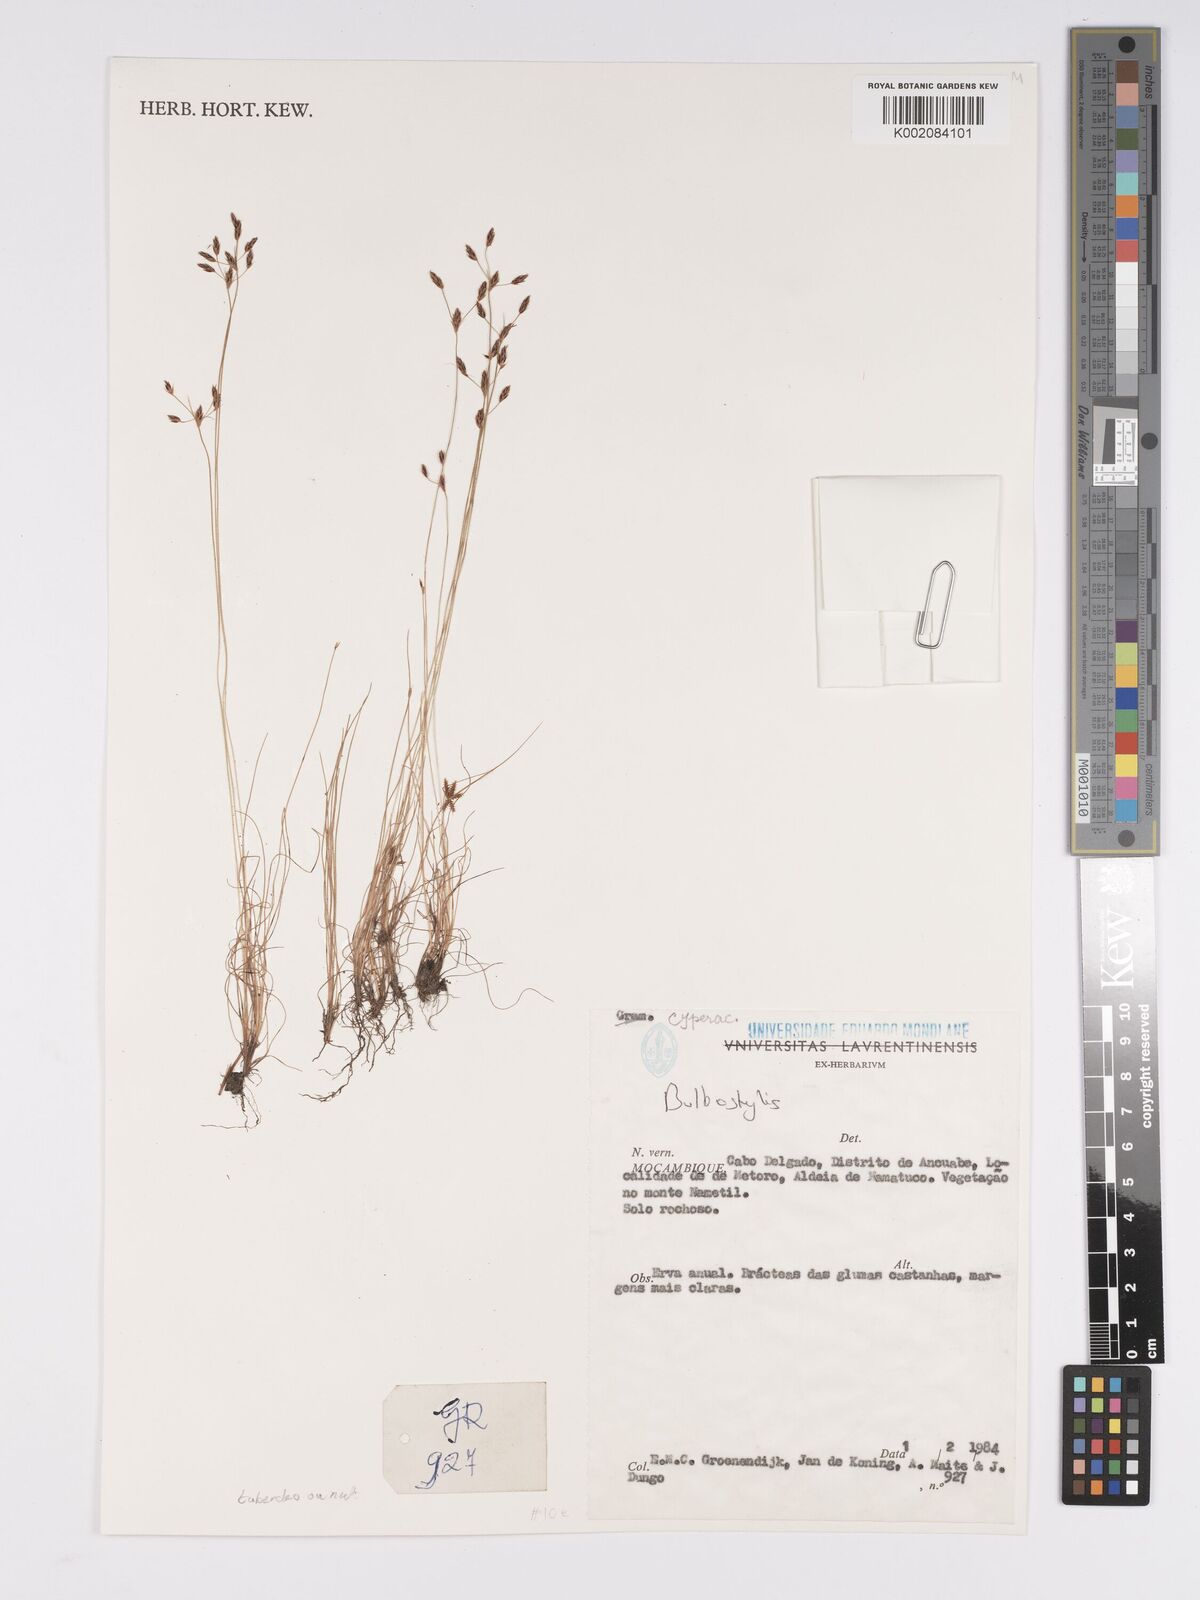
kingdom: Plantae
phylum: Tracheophyta
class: Liliopsida
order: Poales
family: Cyperaceae
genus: Bulbostylis
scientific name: Bulbostylis
